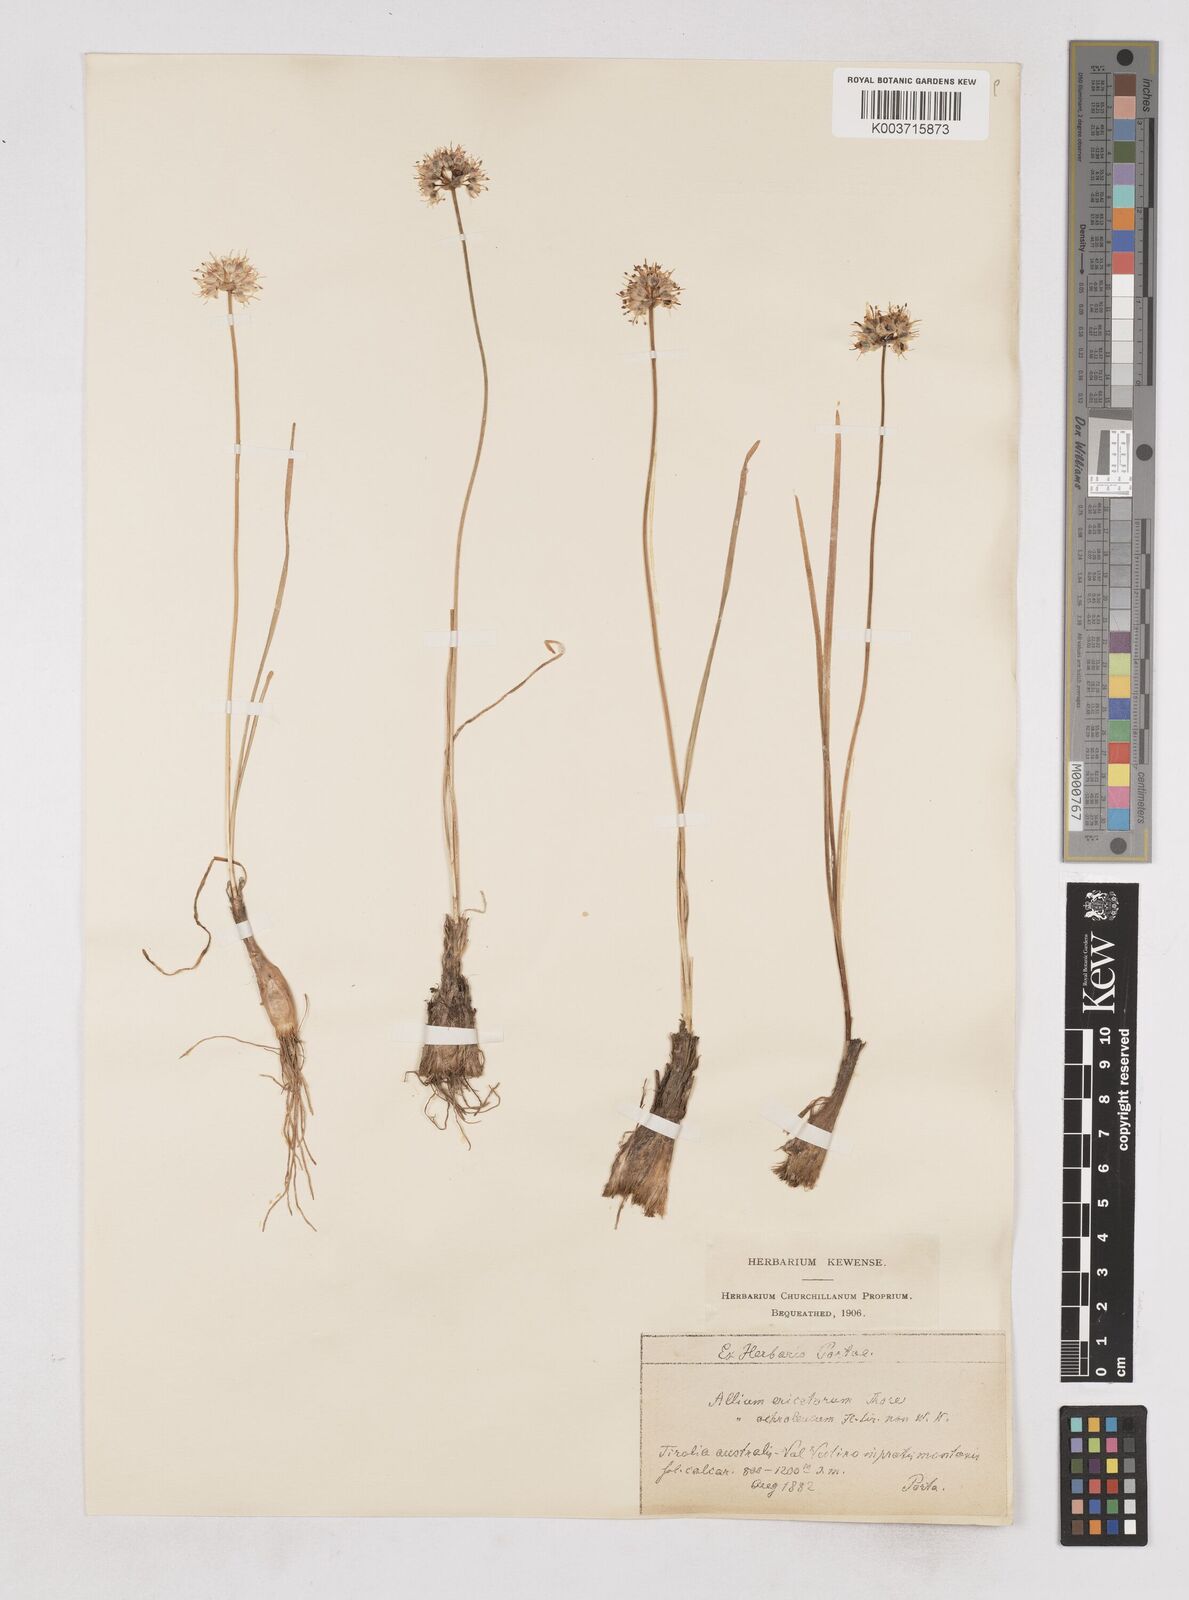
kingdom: Plantae
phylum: Tracheophyta
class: Liliopsida
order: Asparagales
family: Amaryllidaceae
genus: Allium
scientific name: Allium ericetorum
